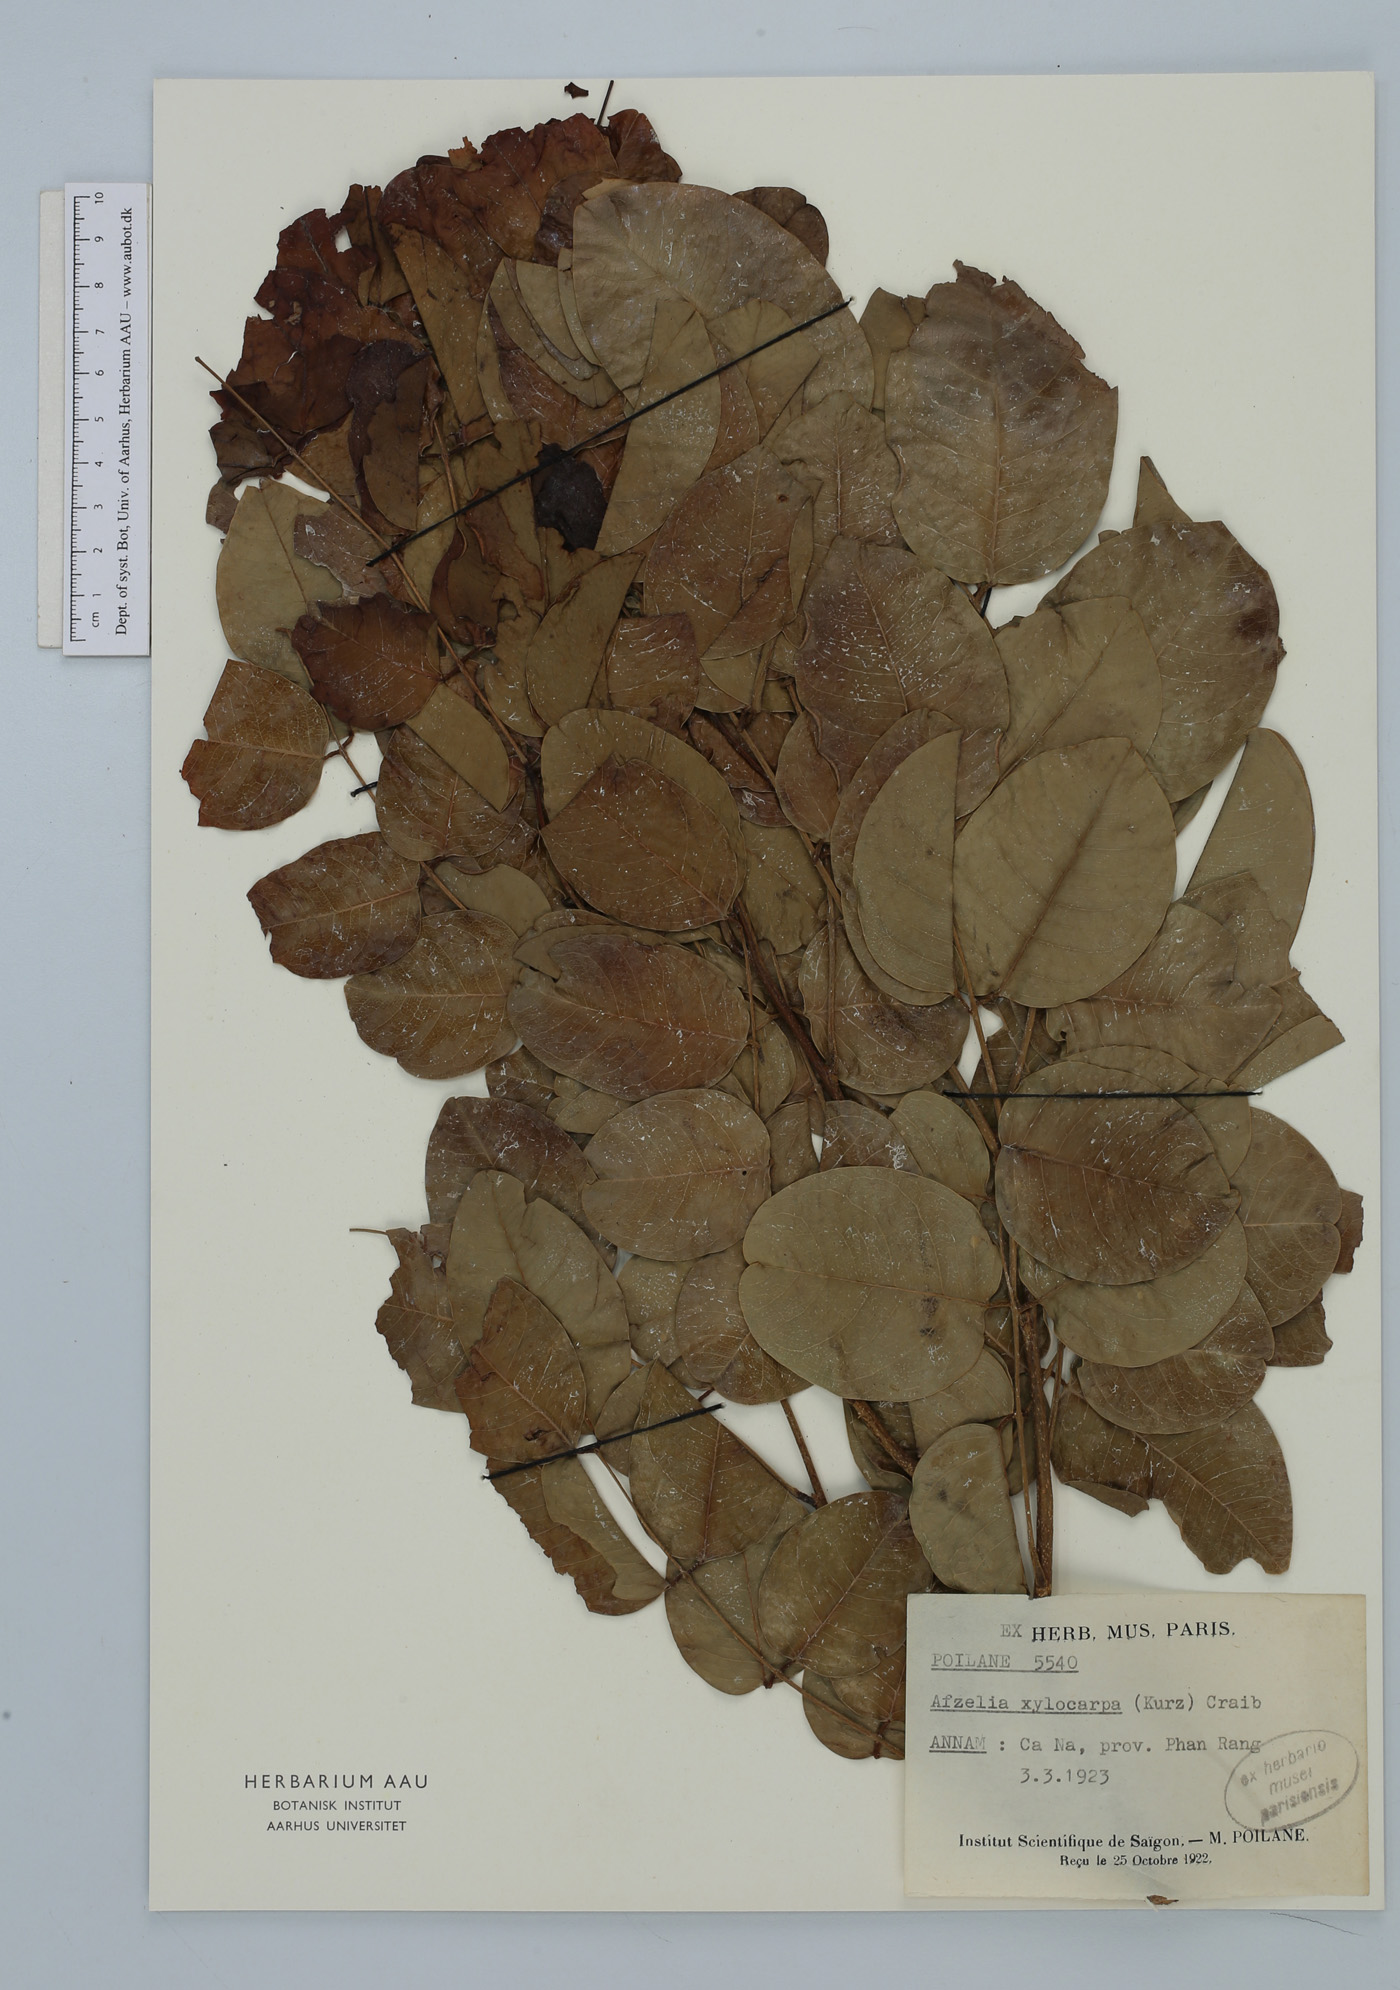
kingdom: Plantae
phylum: Tracheophyta
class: Magnoliopsida
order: Fabales
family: Fabaceae
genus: Afzelia
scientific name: Afzelia xylocarpa
